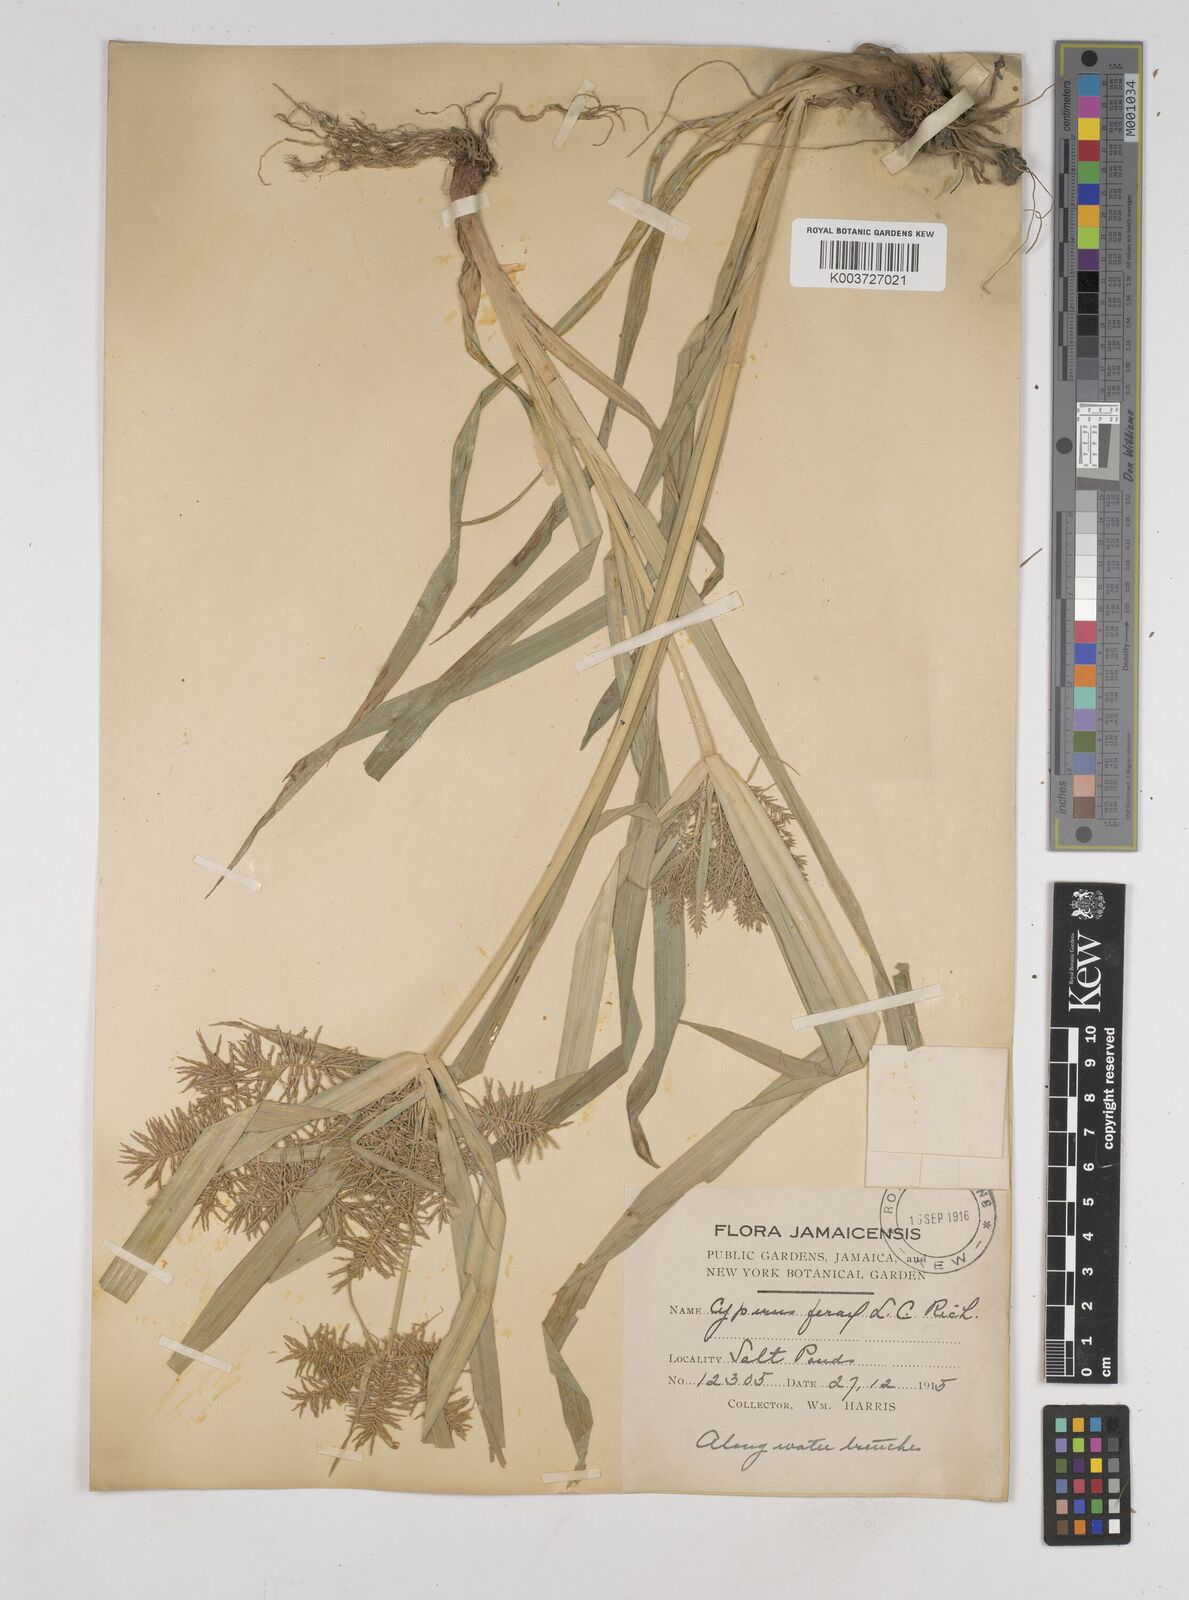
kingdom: Plantae
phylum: Tracheophyta
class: Liliopsida
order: Poales
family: Cyperaceae
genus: Cyperus
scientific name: Cyperus odoratus
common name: Fragrant flatsedge
